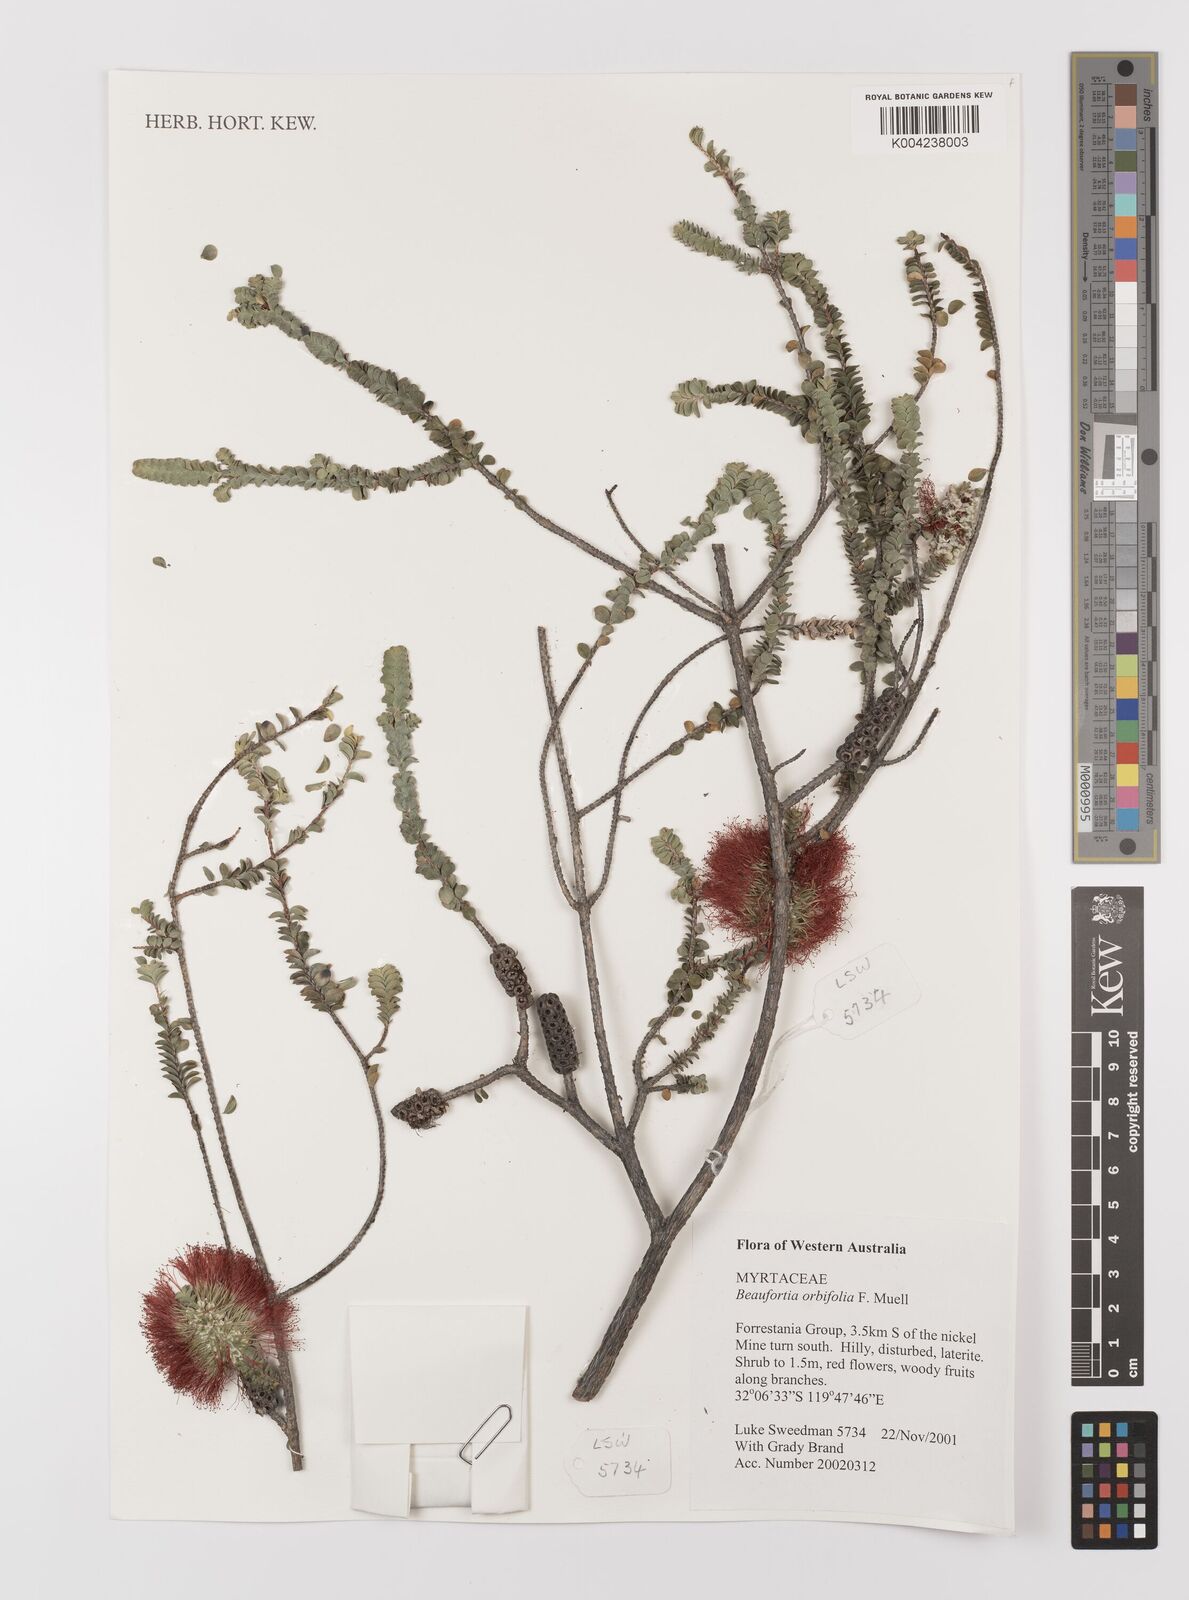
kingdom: Plantae
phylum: Tracheophyta
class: Magnoliopsida
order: Myrtales
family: Myrtaceae
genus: Melaleuca
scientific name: Melaleuca orbifolia
